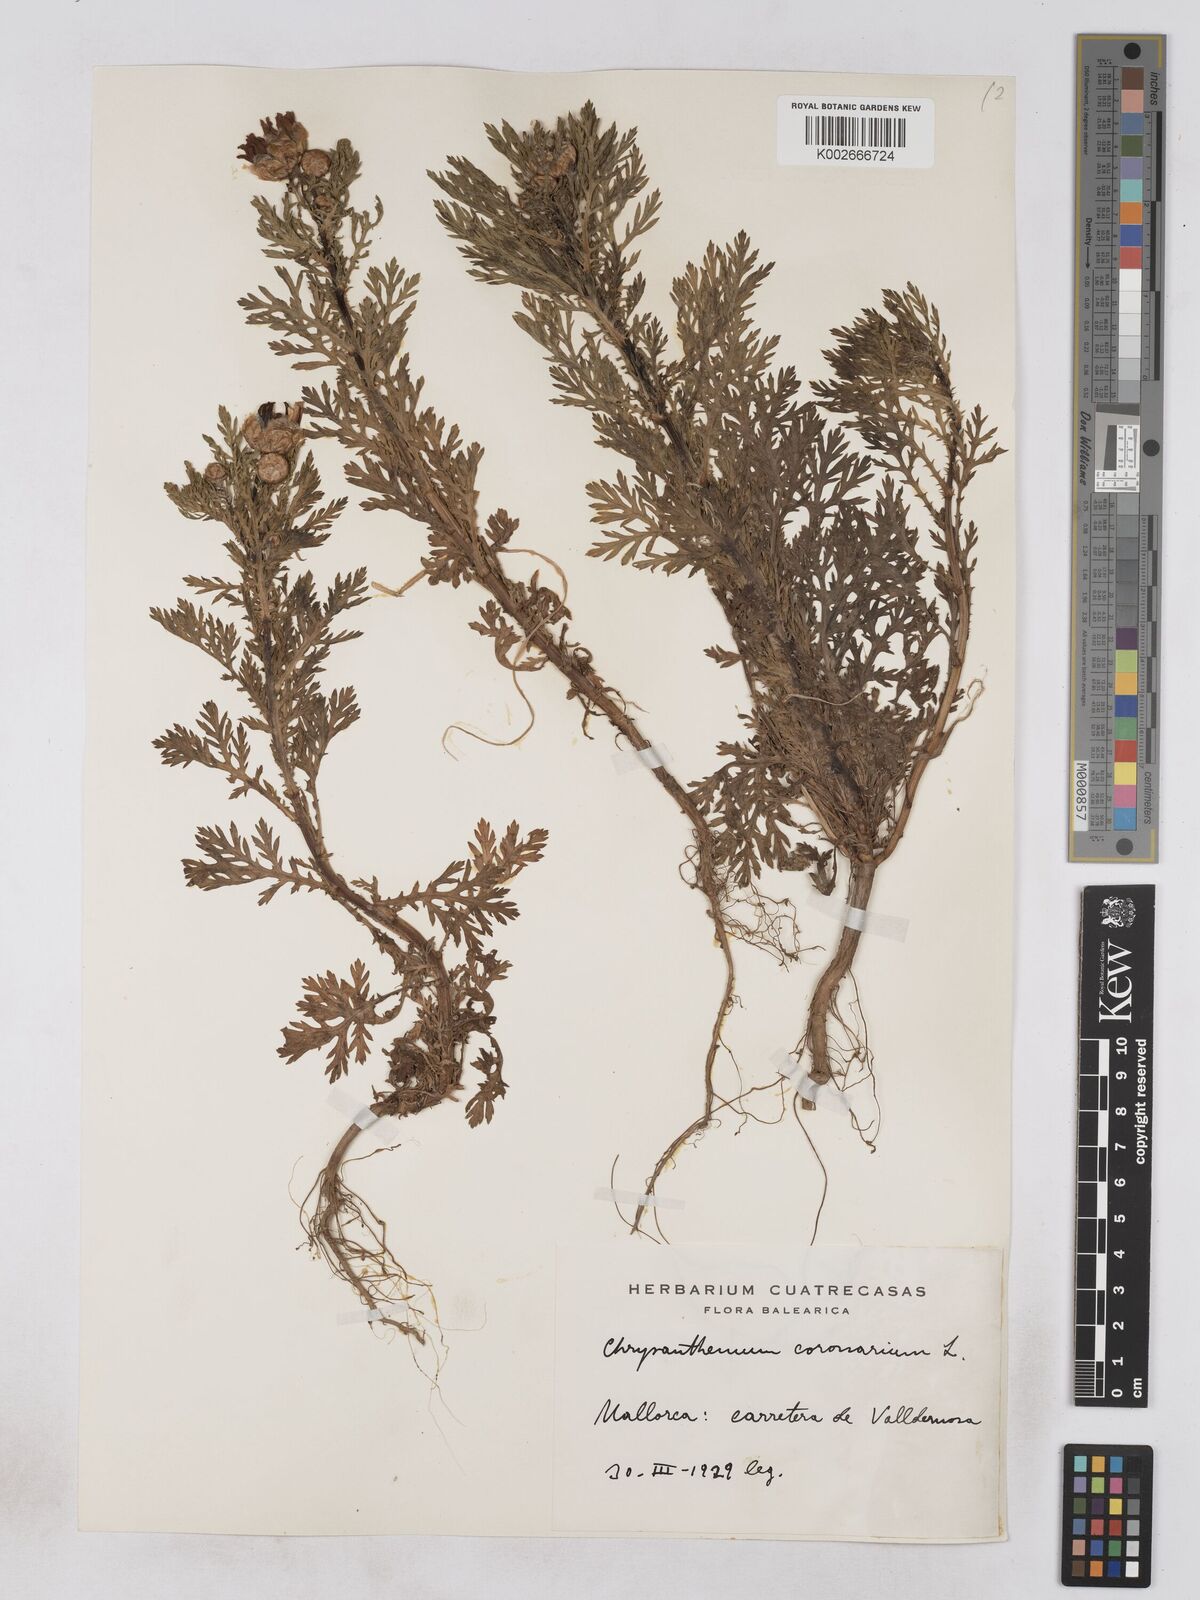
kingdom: Plantae
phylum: Tracheophyta
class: Magnoliopsida
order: Asterales
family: Asteraceae
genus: Glebionis
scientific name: Glebionis
